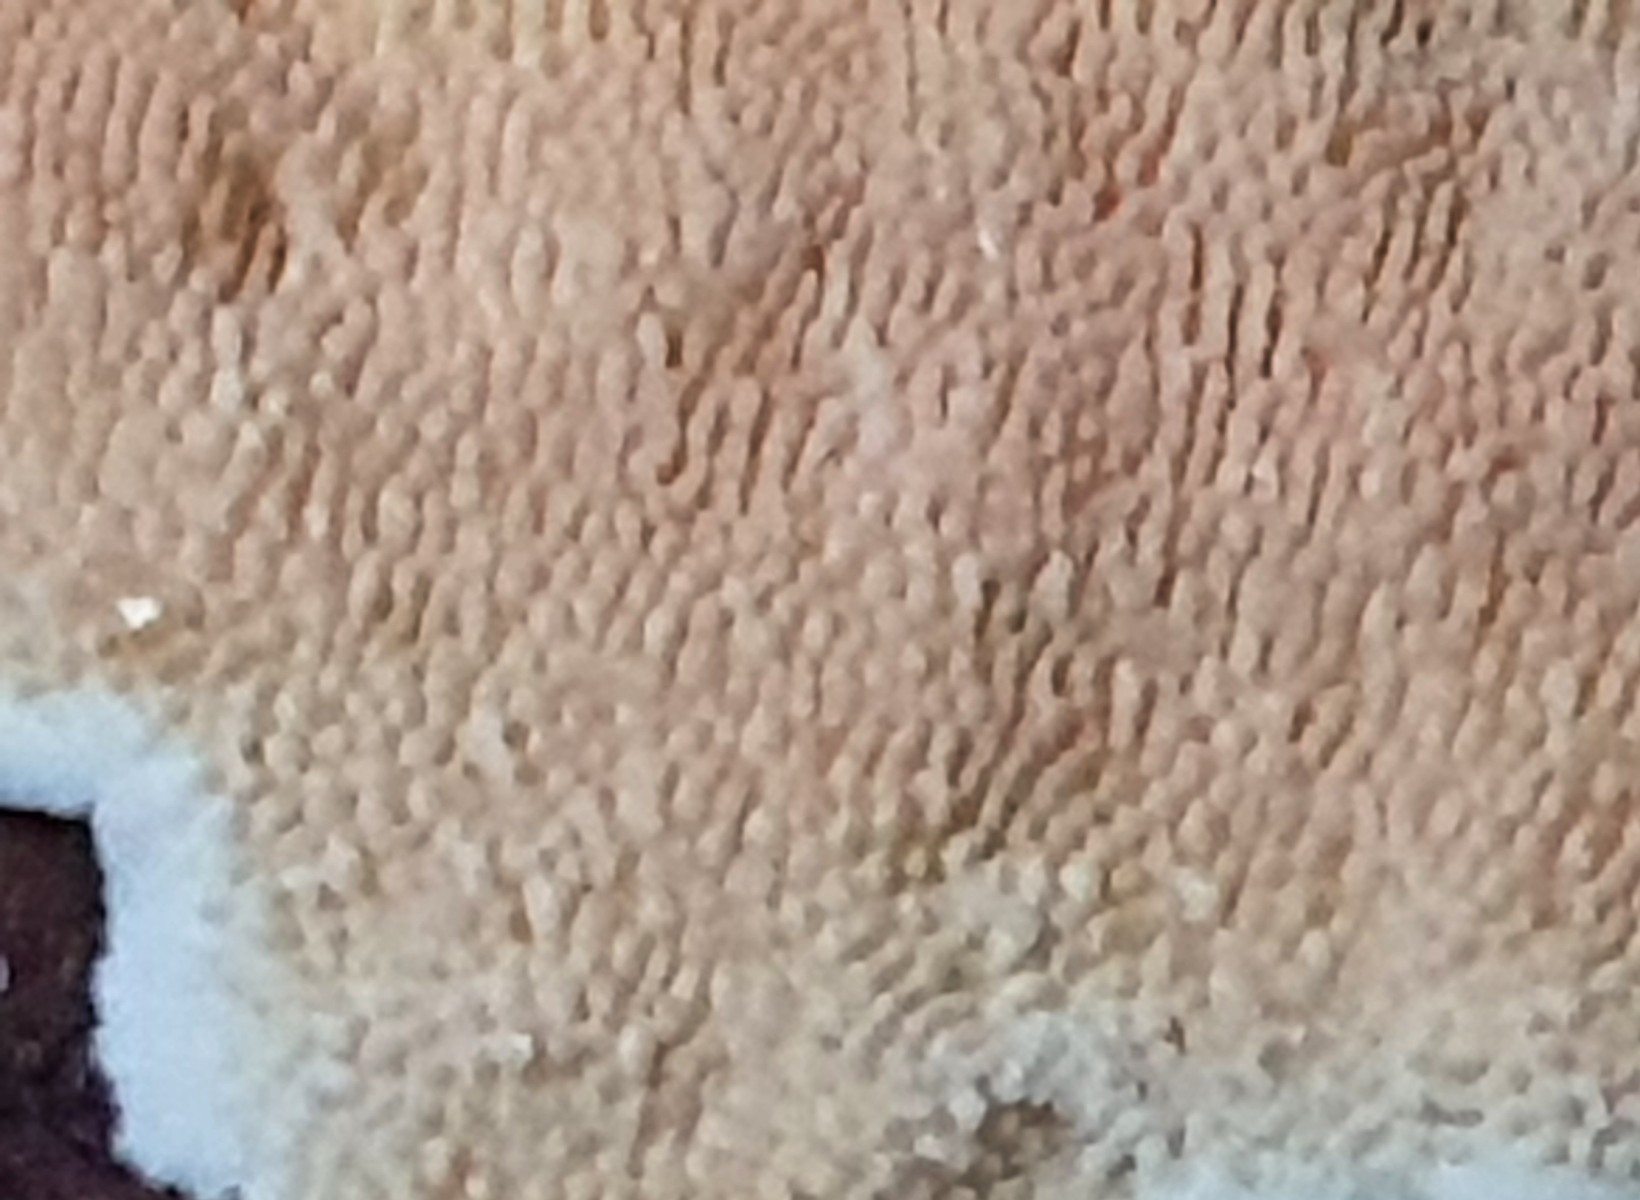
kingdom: Fungi
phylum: Basidiomycota
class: Agaricomycetes
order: Polyporales
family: Steccherinaceae
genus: Steccherinum
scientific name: Steccherinum ochraceum
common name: almindelig skønpig
